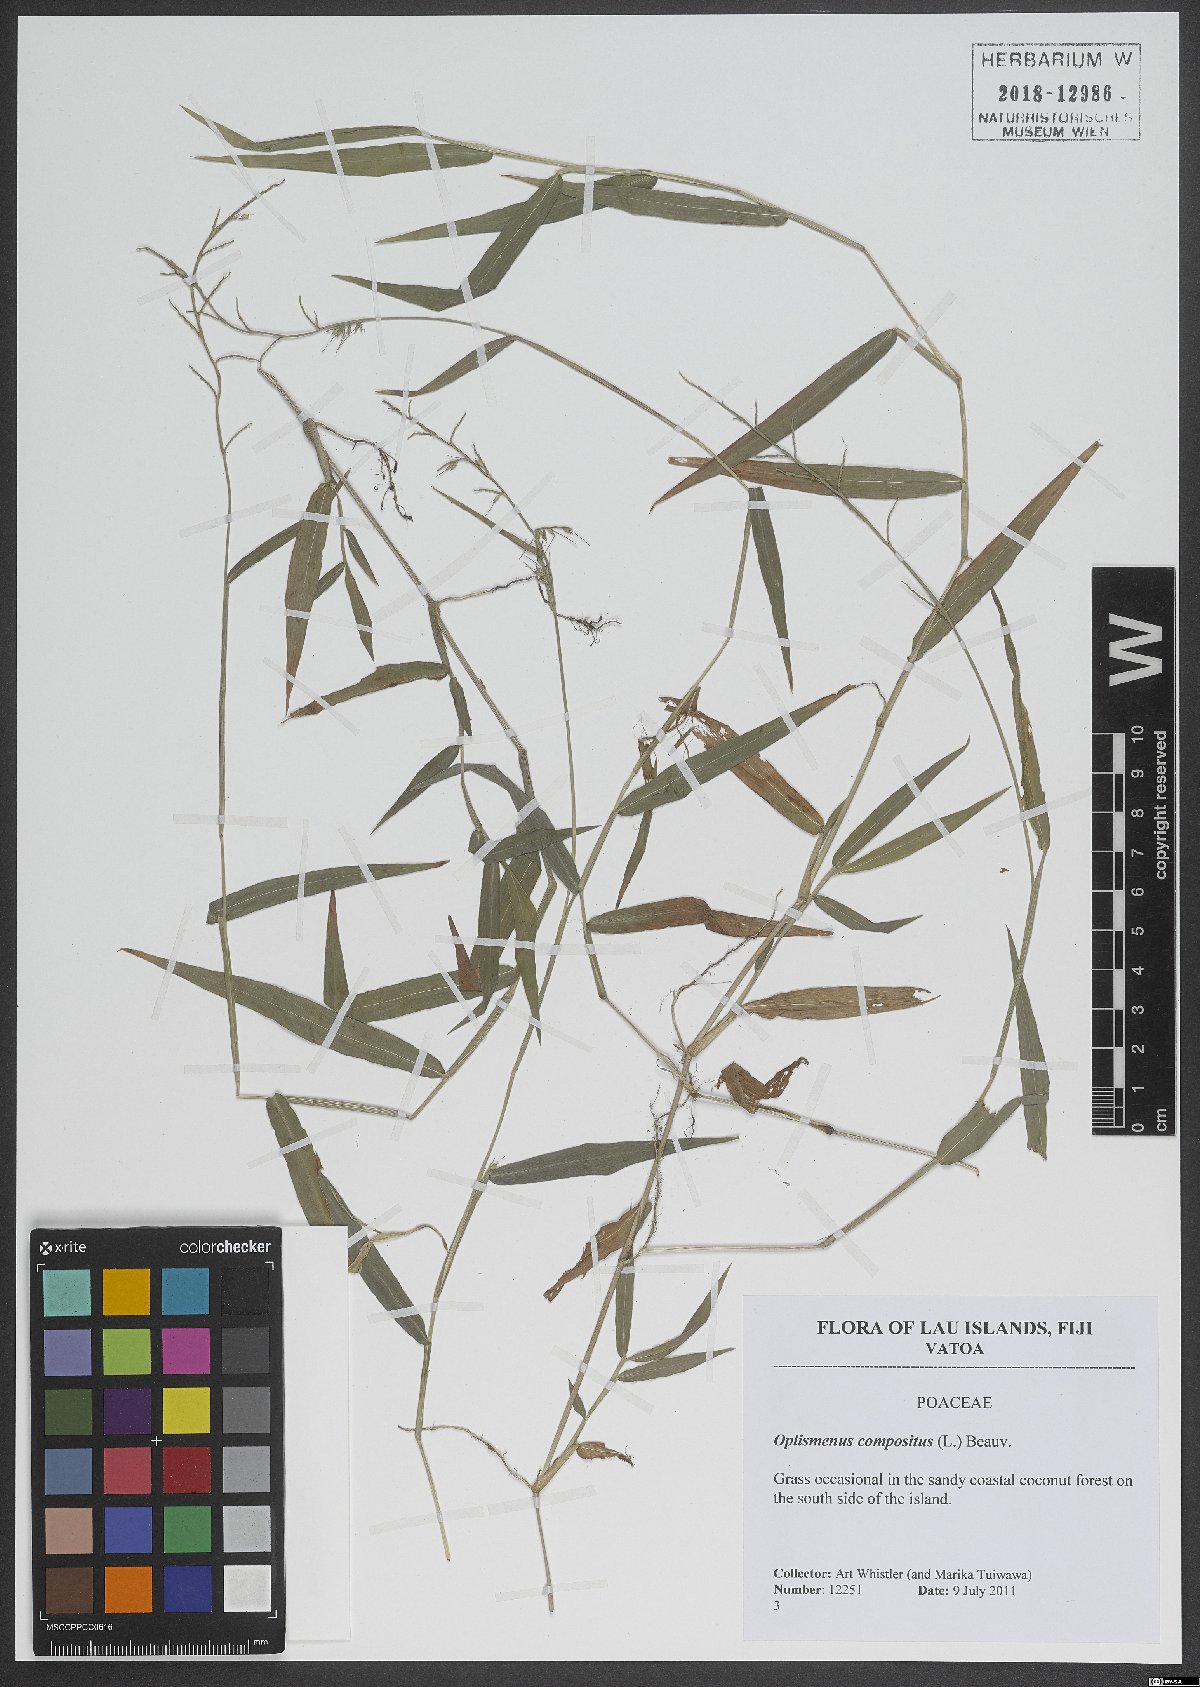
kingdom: Plantae
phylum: Tracheophyta
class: Liliopsida
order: Poales
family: Poaceae
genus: Oplismenus
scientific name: Oplismenus compositus
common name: Running mountain grass
